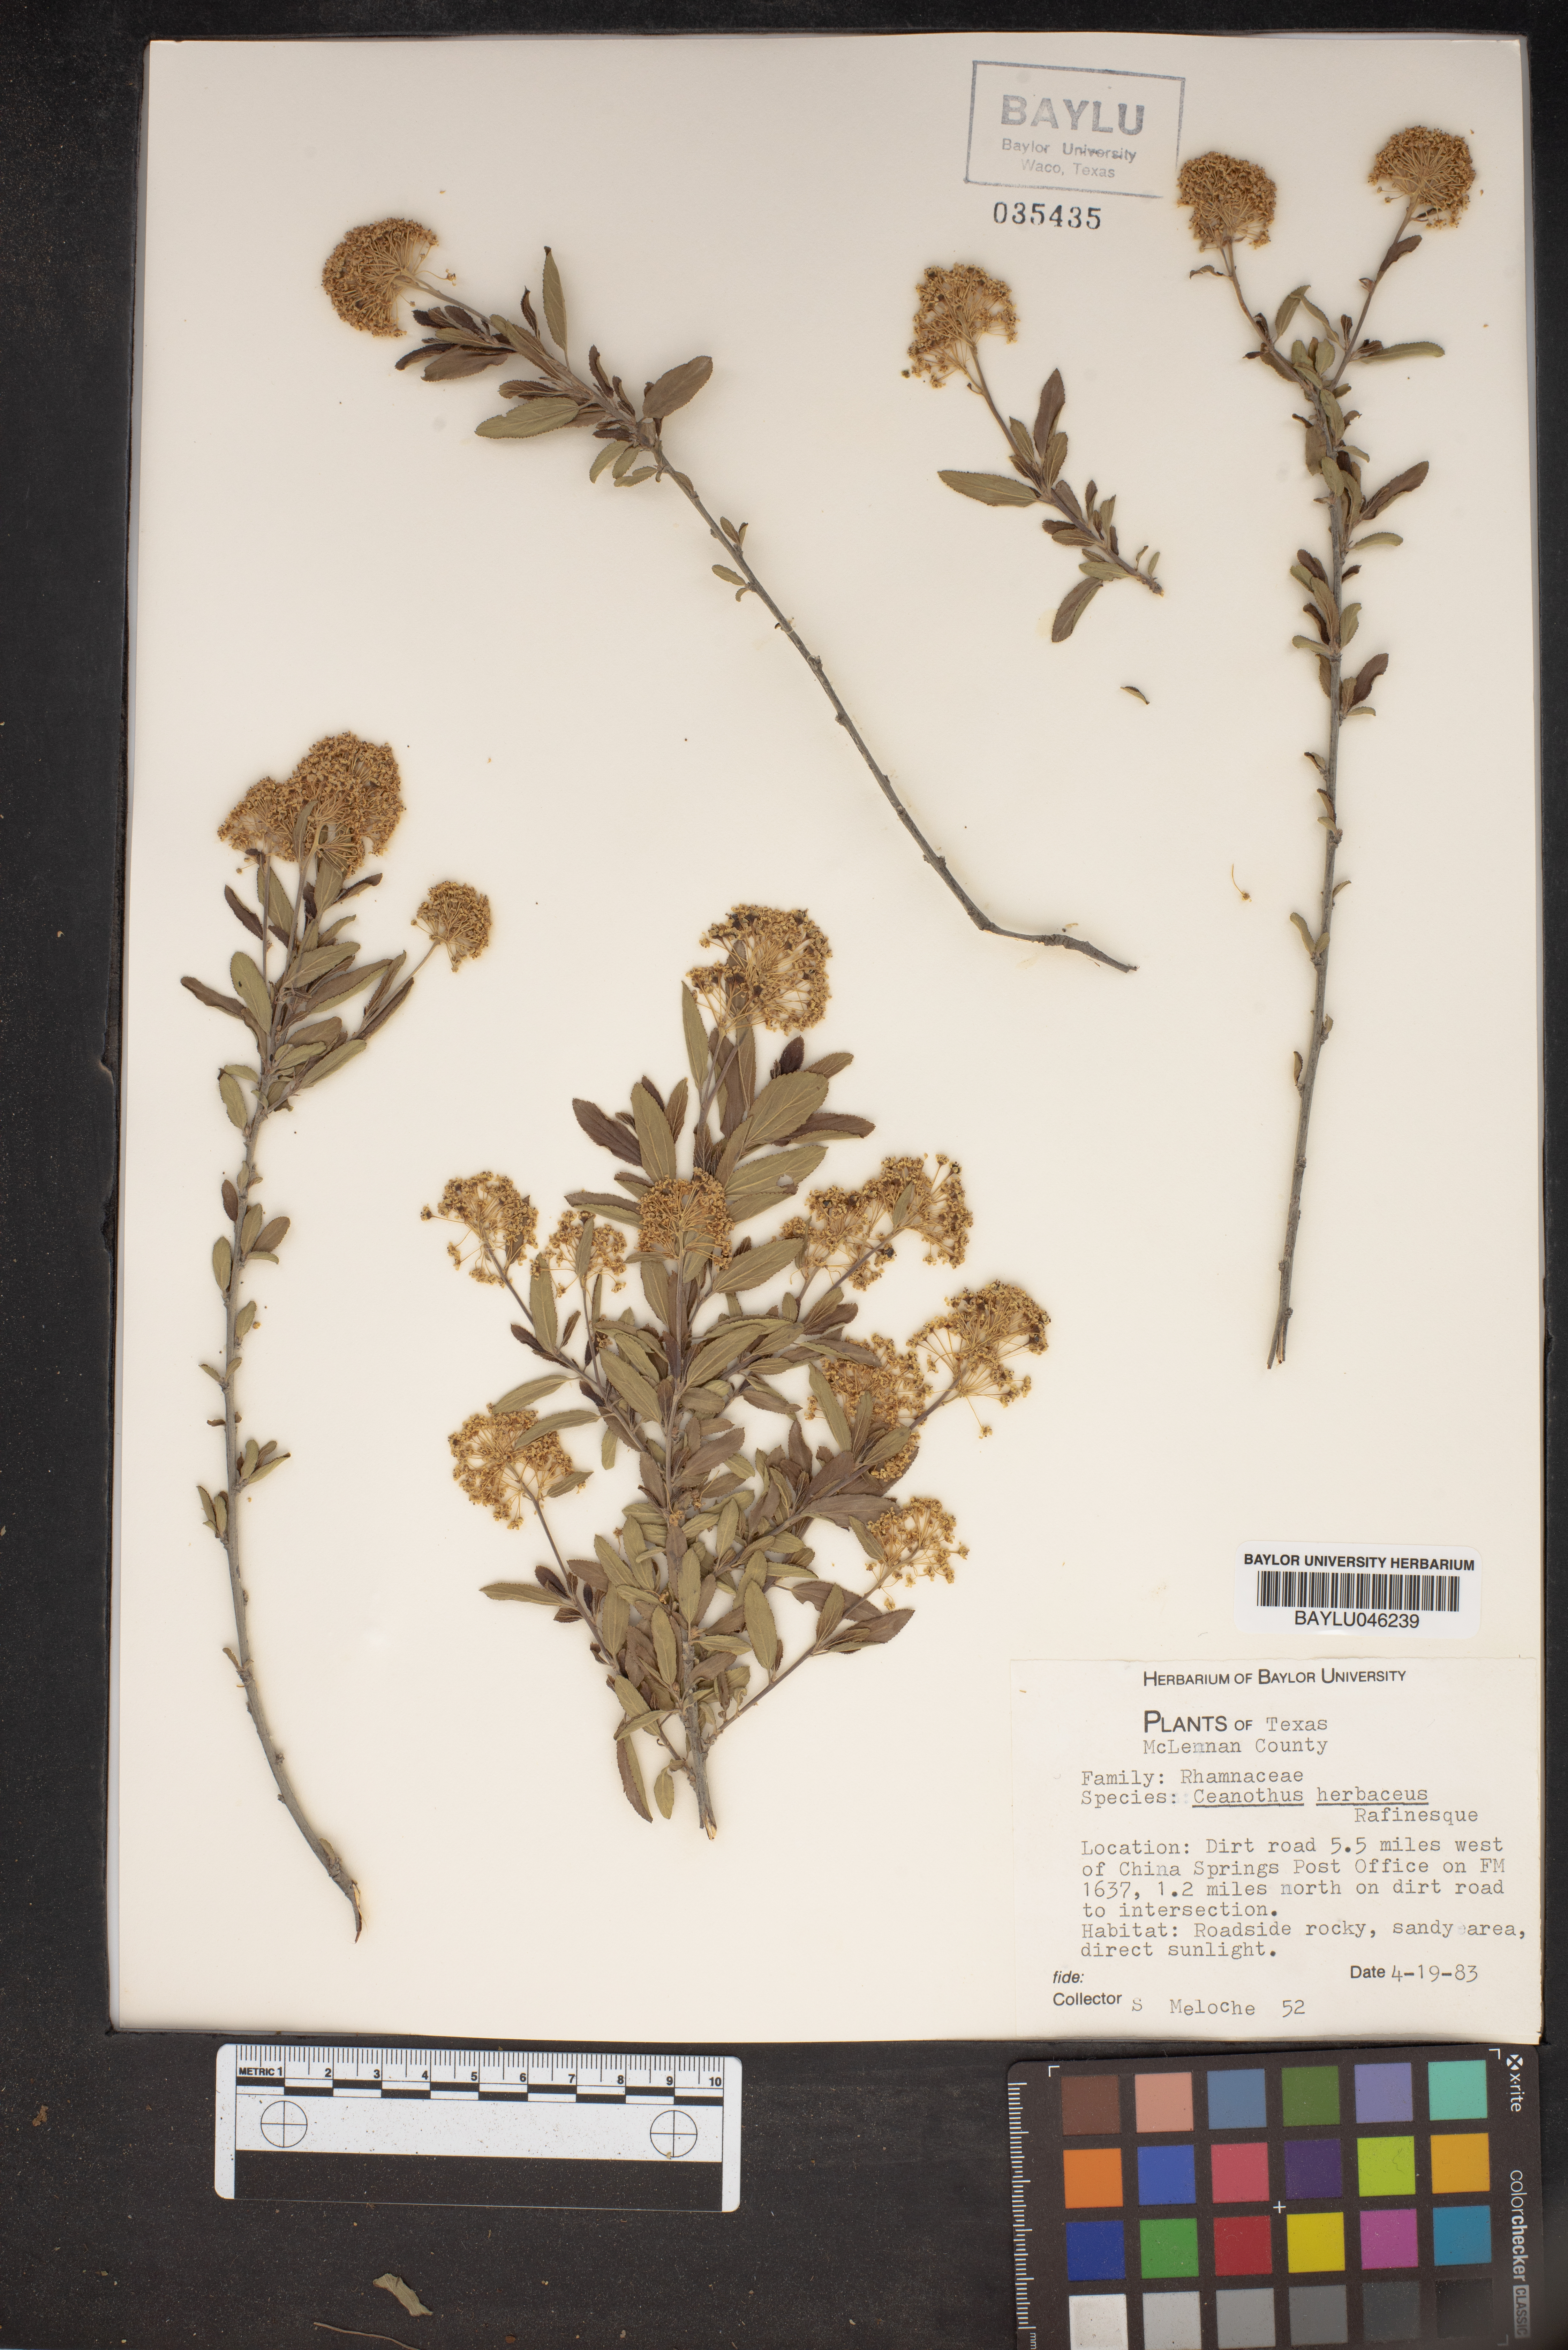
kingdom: Plantae
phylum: Tracheophyta
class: Magnoliopsida
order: Rosales
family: Rhamnaceae
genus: Ceanothus
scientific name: Ceanothus herbaceus
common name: Inland ceanothus
